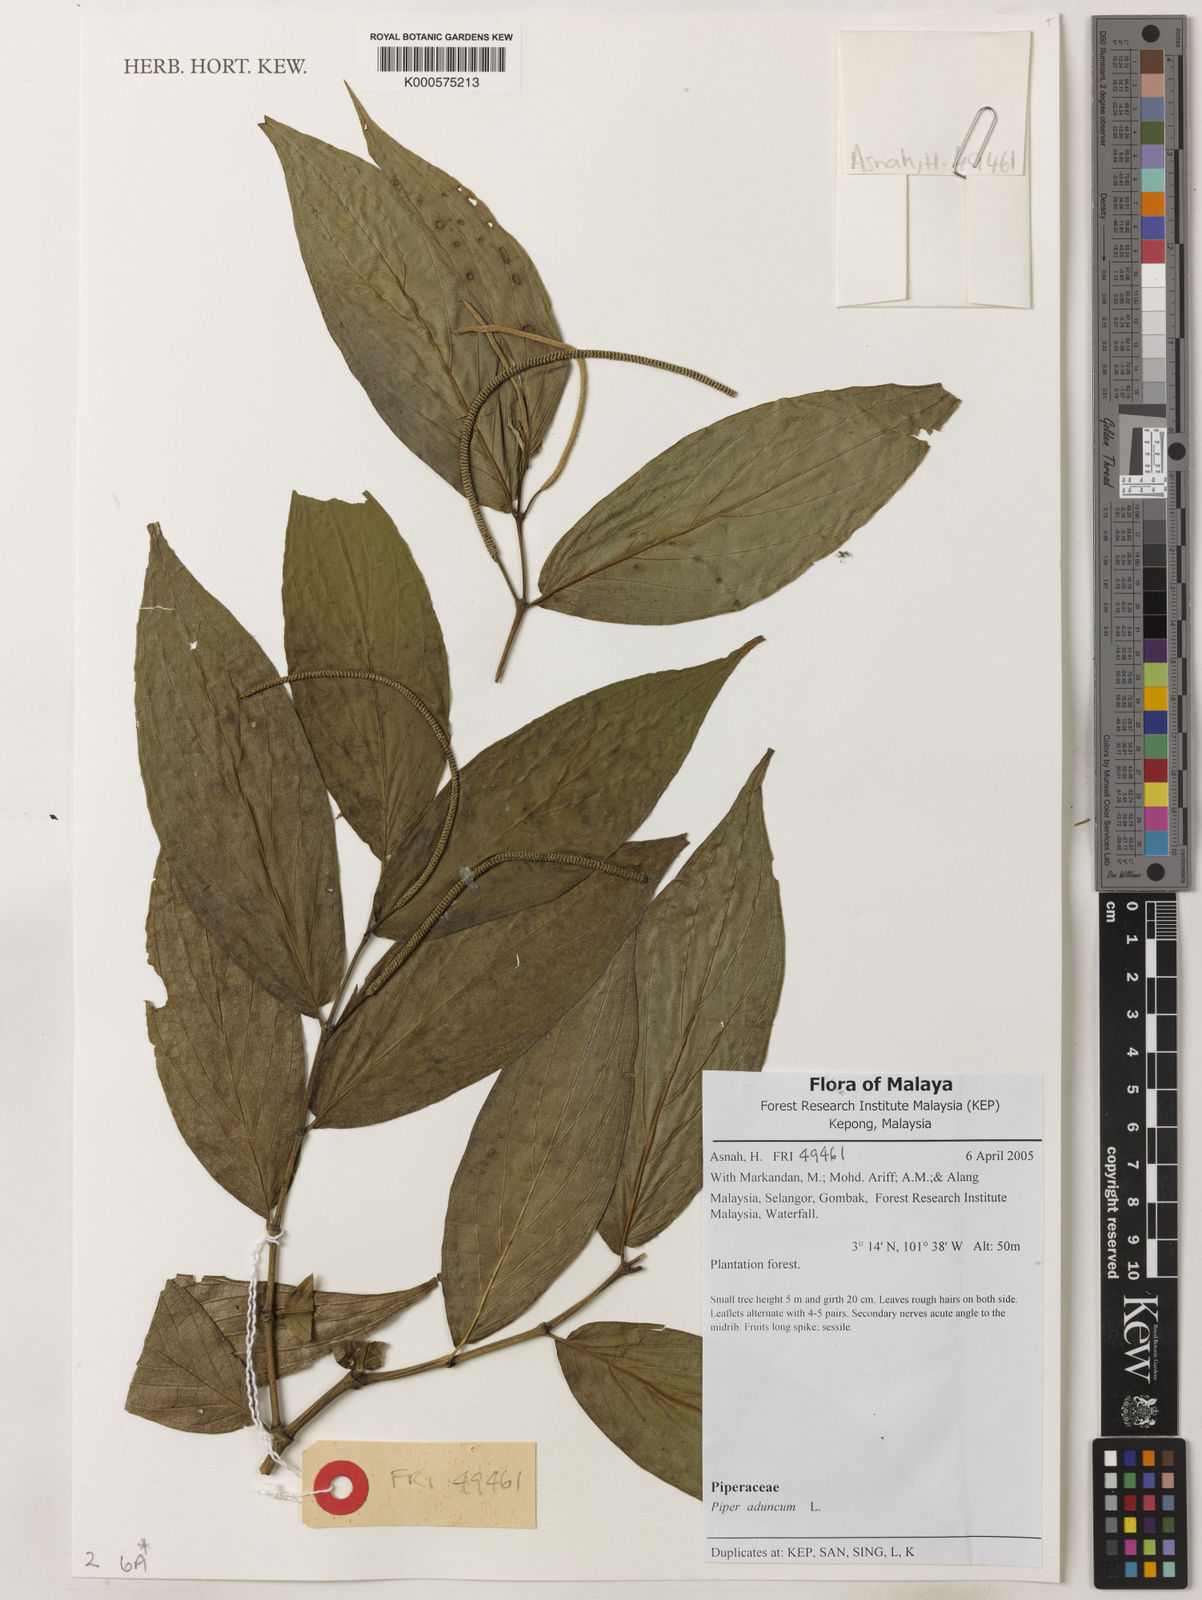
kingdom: Plantae
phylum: Tracheophyta
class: Magnoliopsida
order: Piperales
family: Piperaceae
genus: Piper
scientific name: Piper aduncum
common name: Spiked pepper
